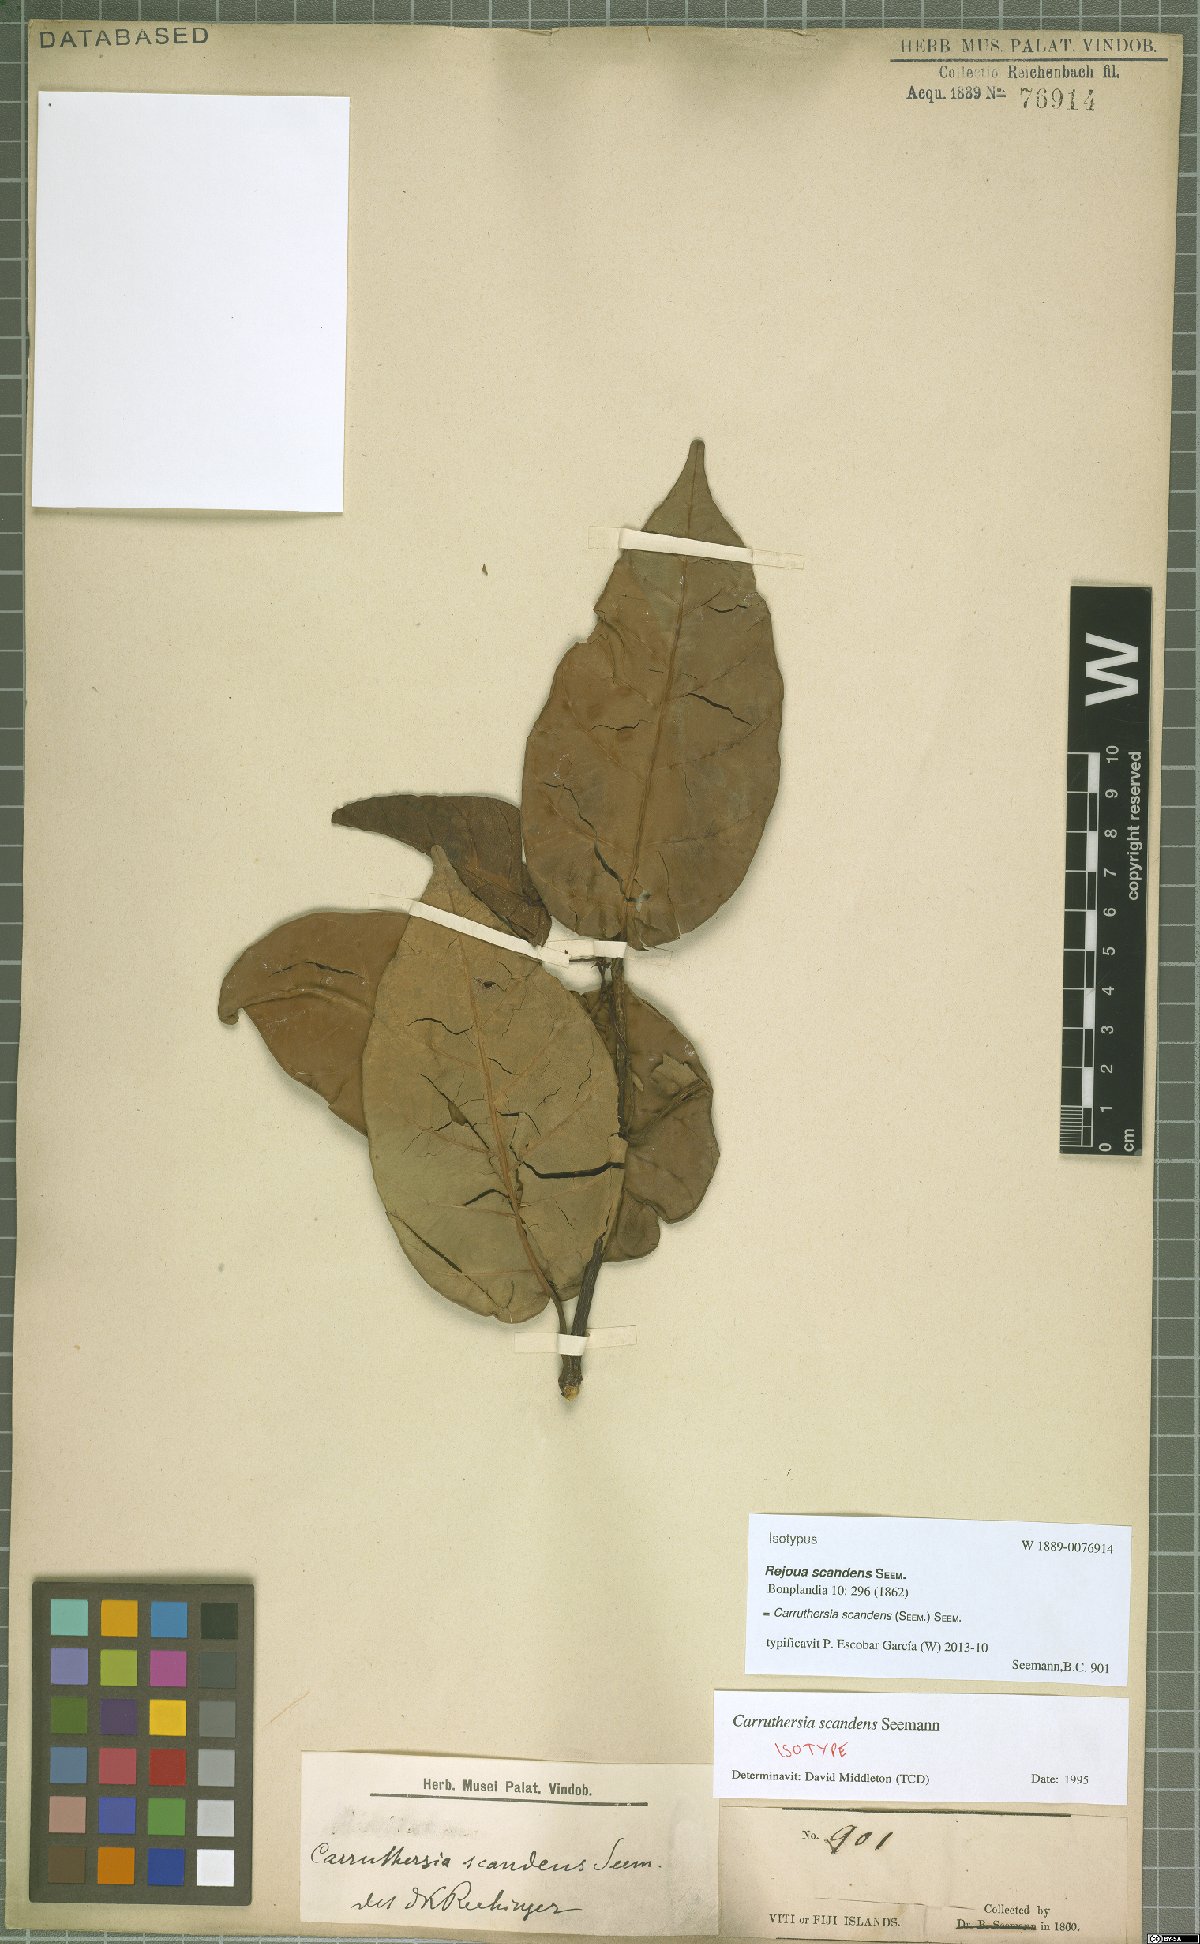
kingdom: Plantae
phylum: Tracheophyta
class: Magnoliopsida
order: Gentianales
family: Apocynaceae
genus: Carruthersia
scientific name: Carruthersia scandens
